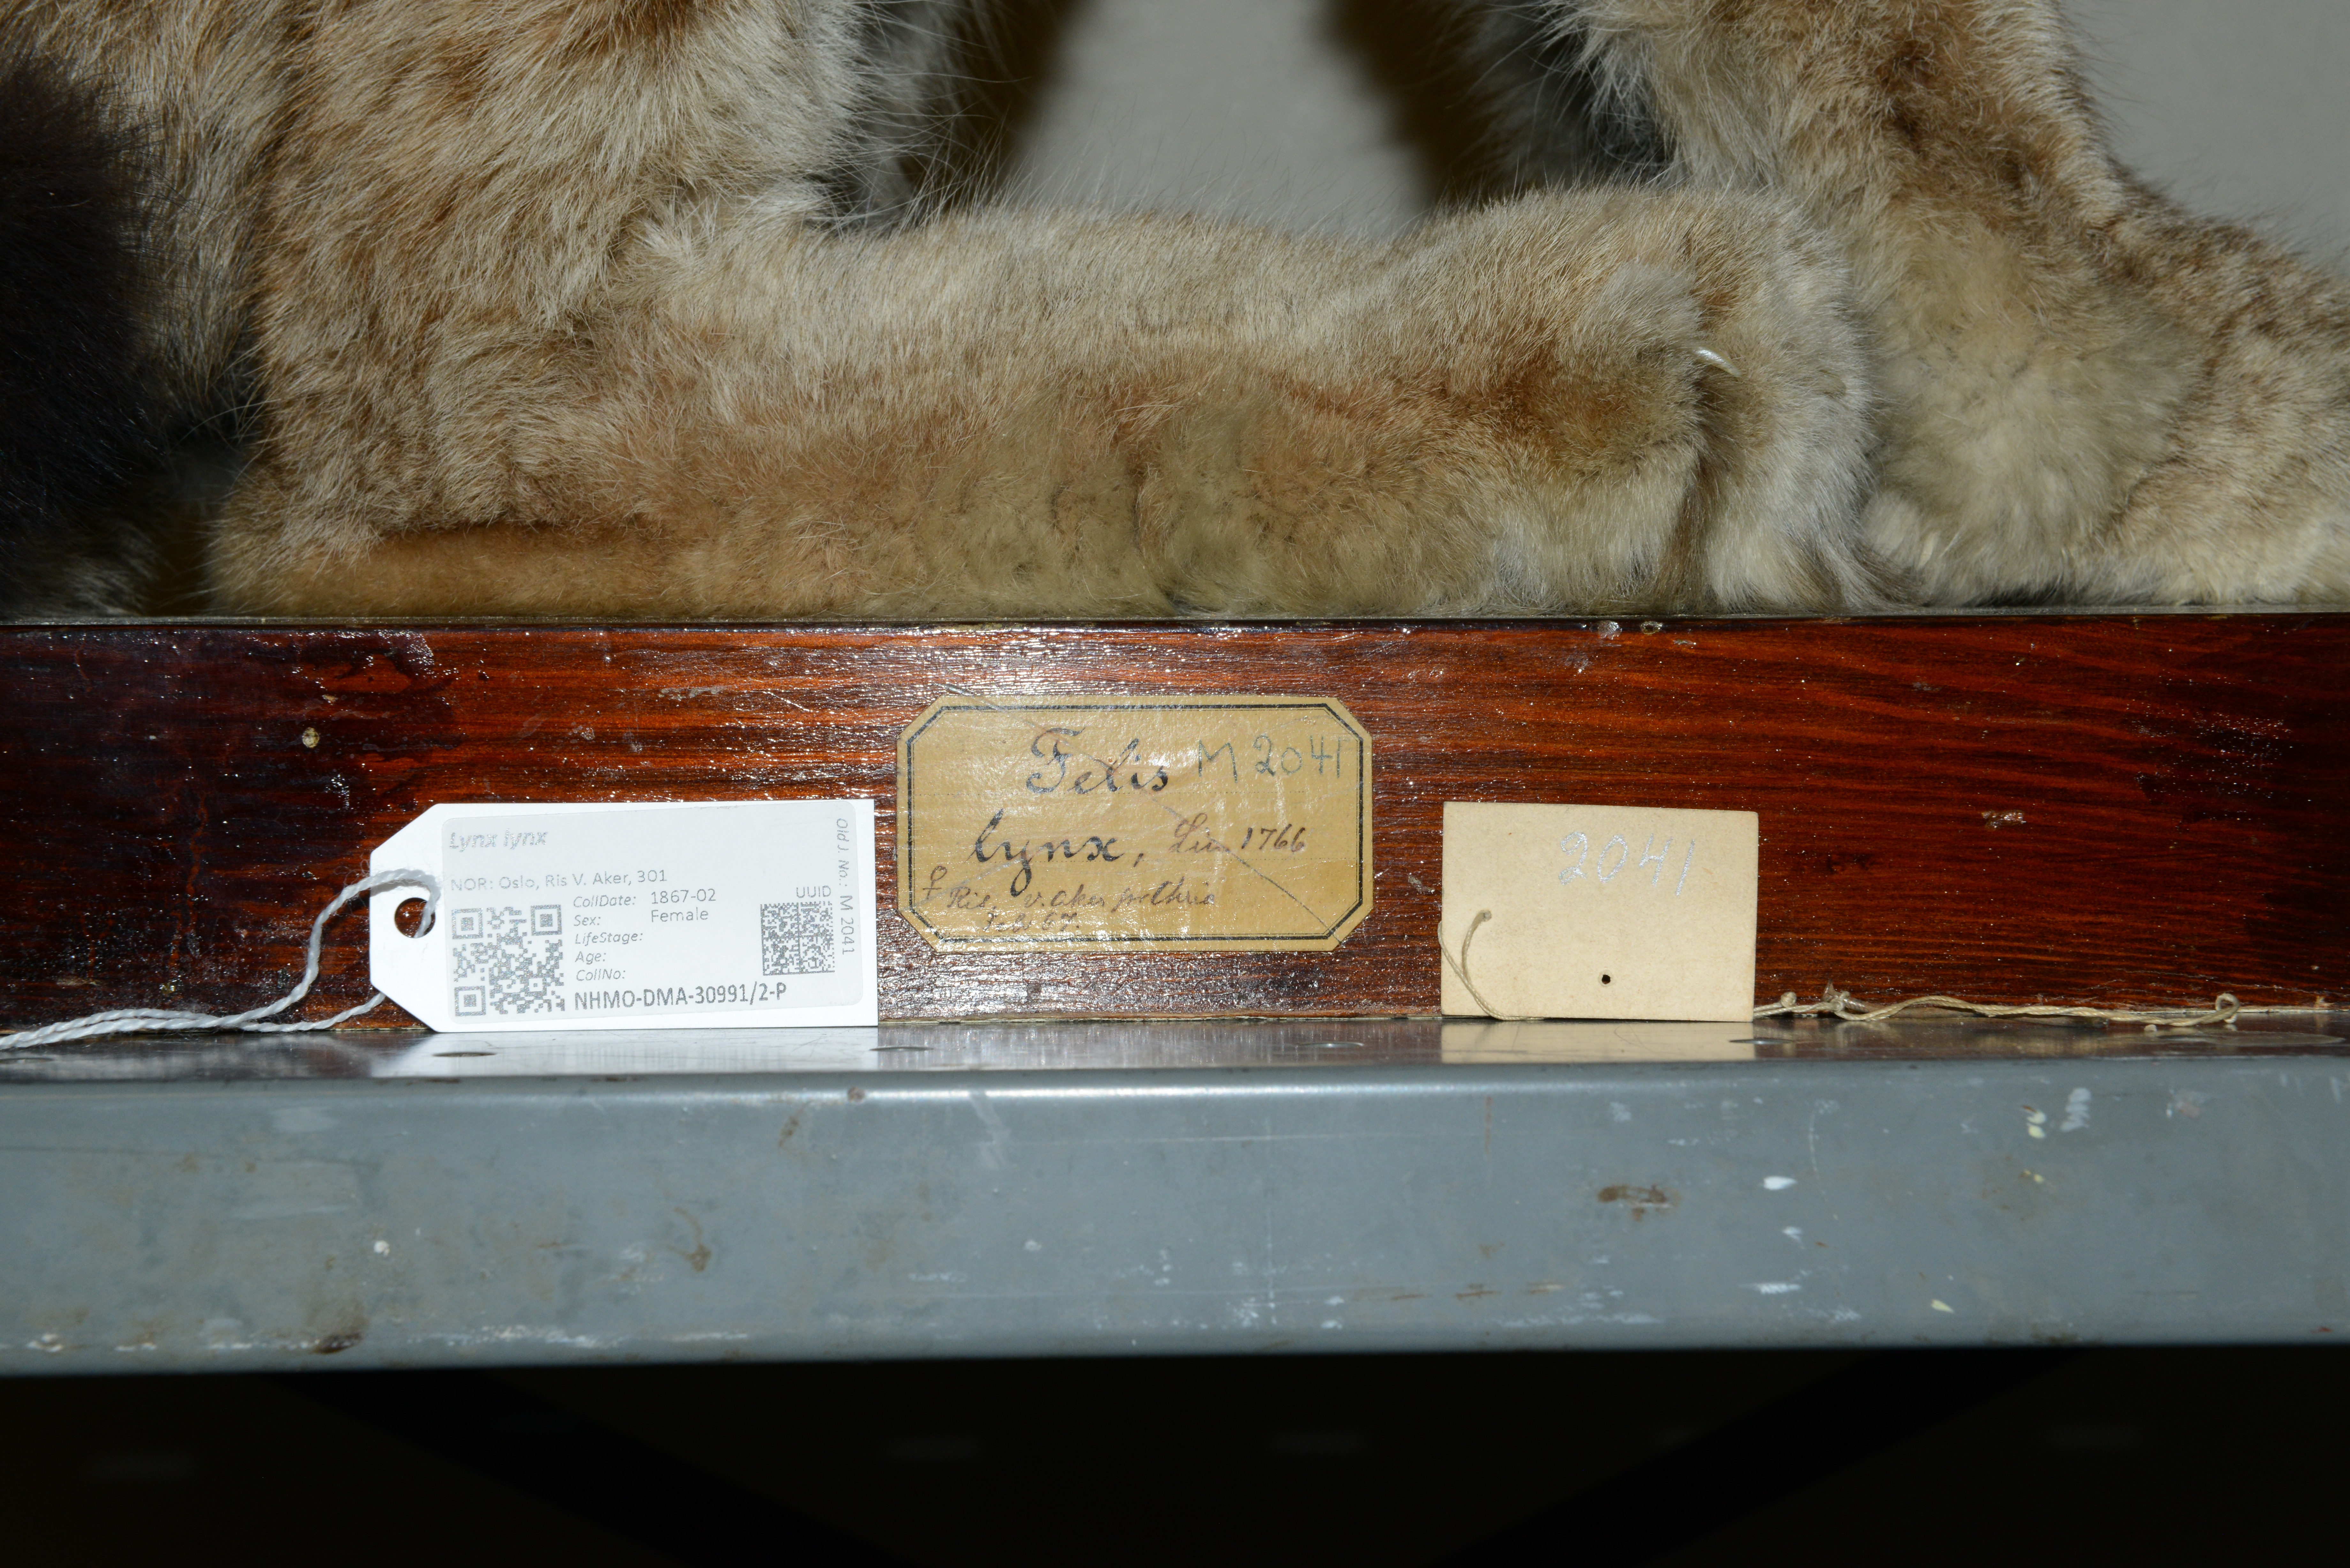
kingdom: Animalia
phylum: Chordata
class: Mammalia
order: Carnivora
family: Felidae
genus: Lynx
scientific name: Lynx lynx
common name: Eurasian lynx
